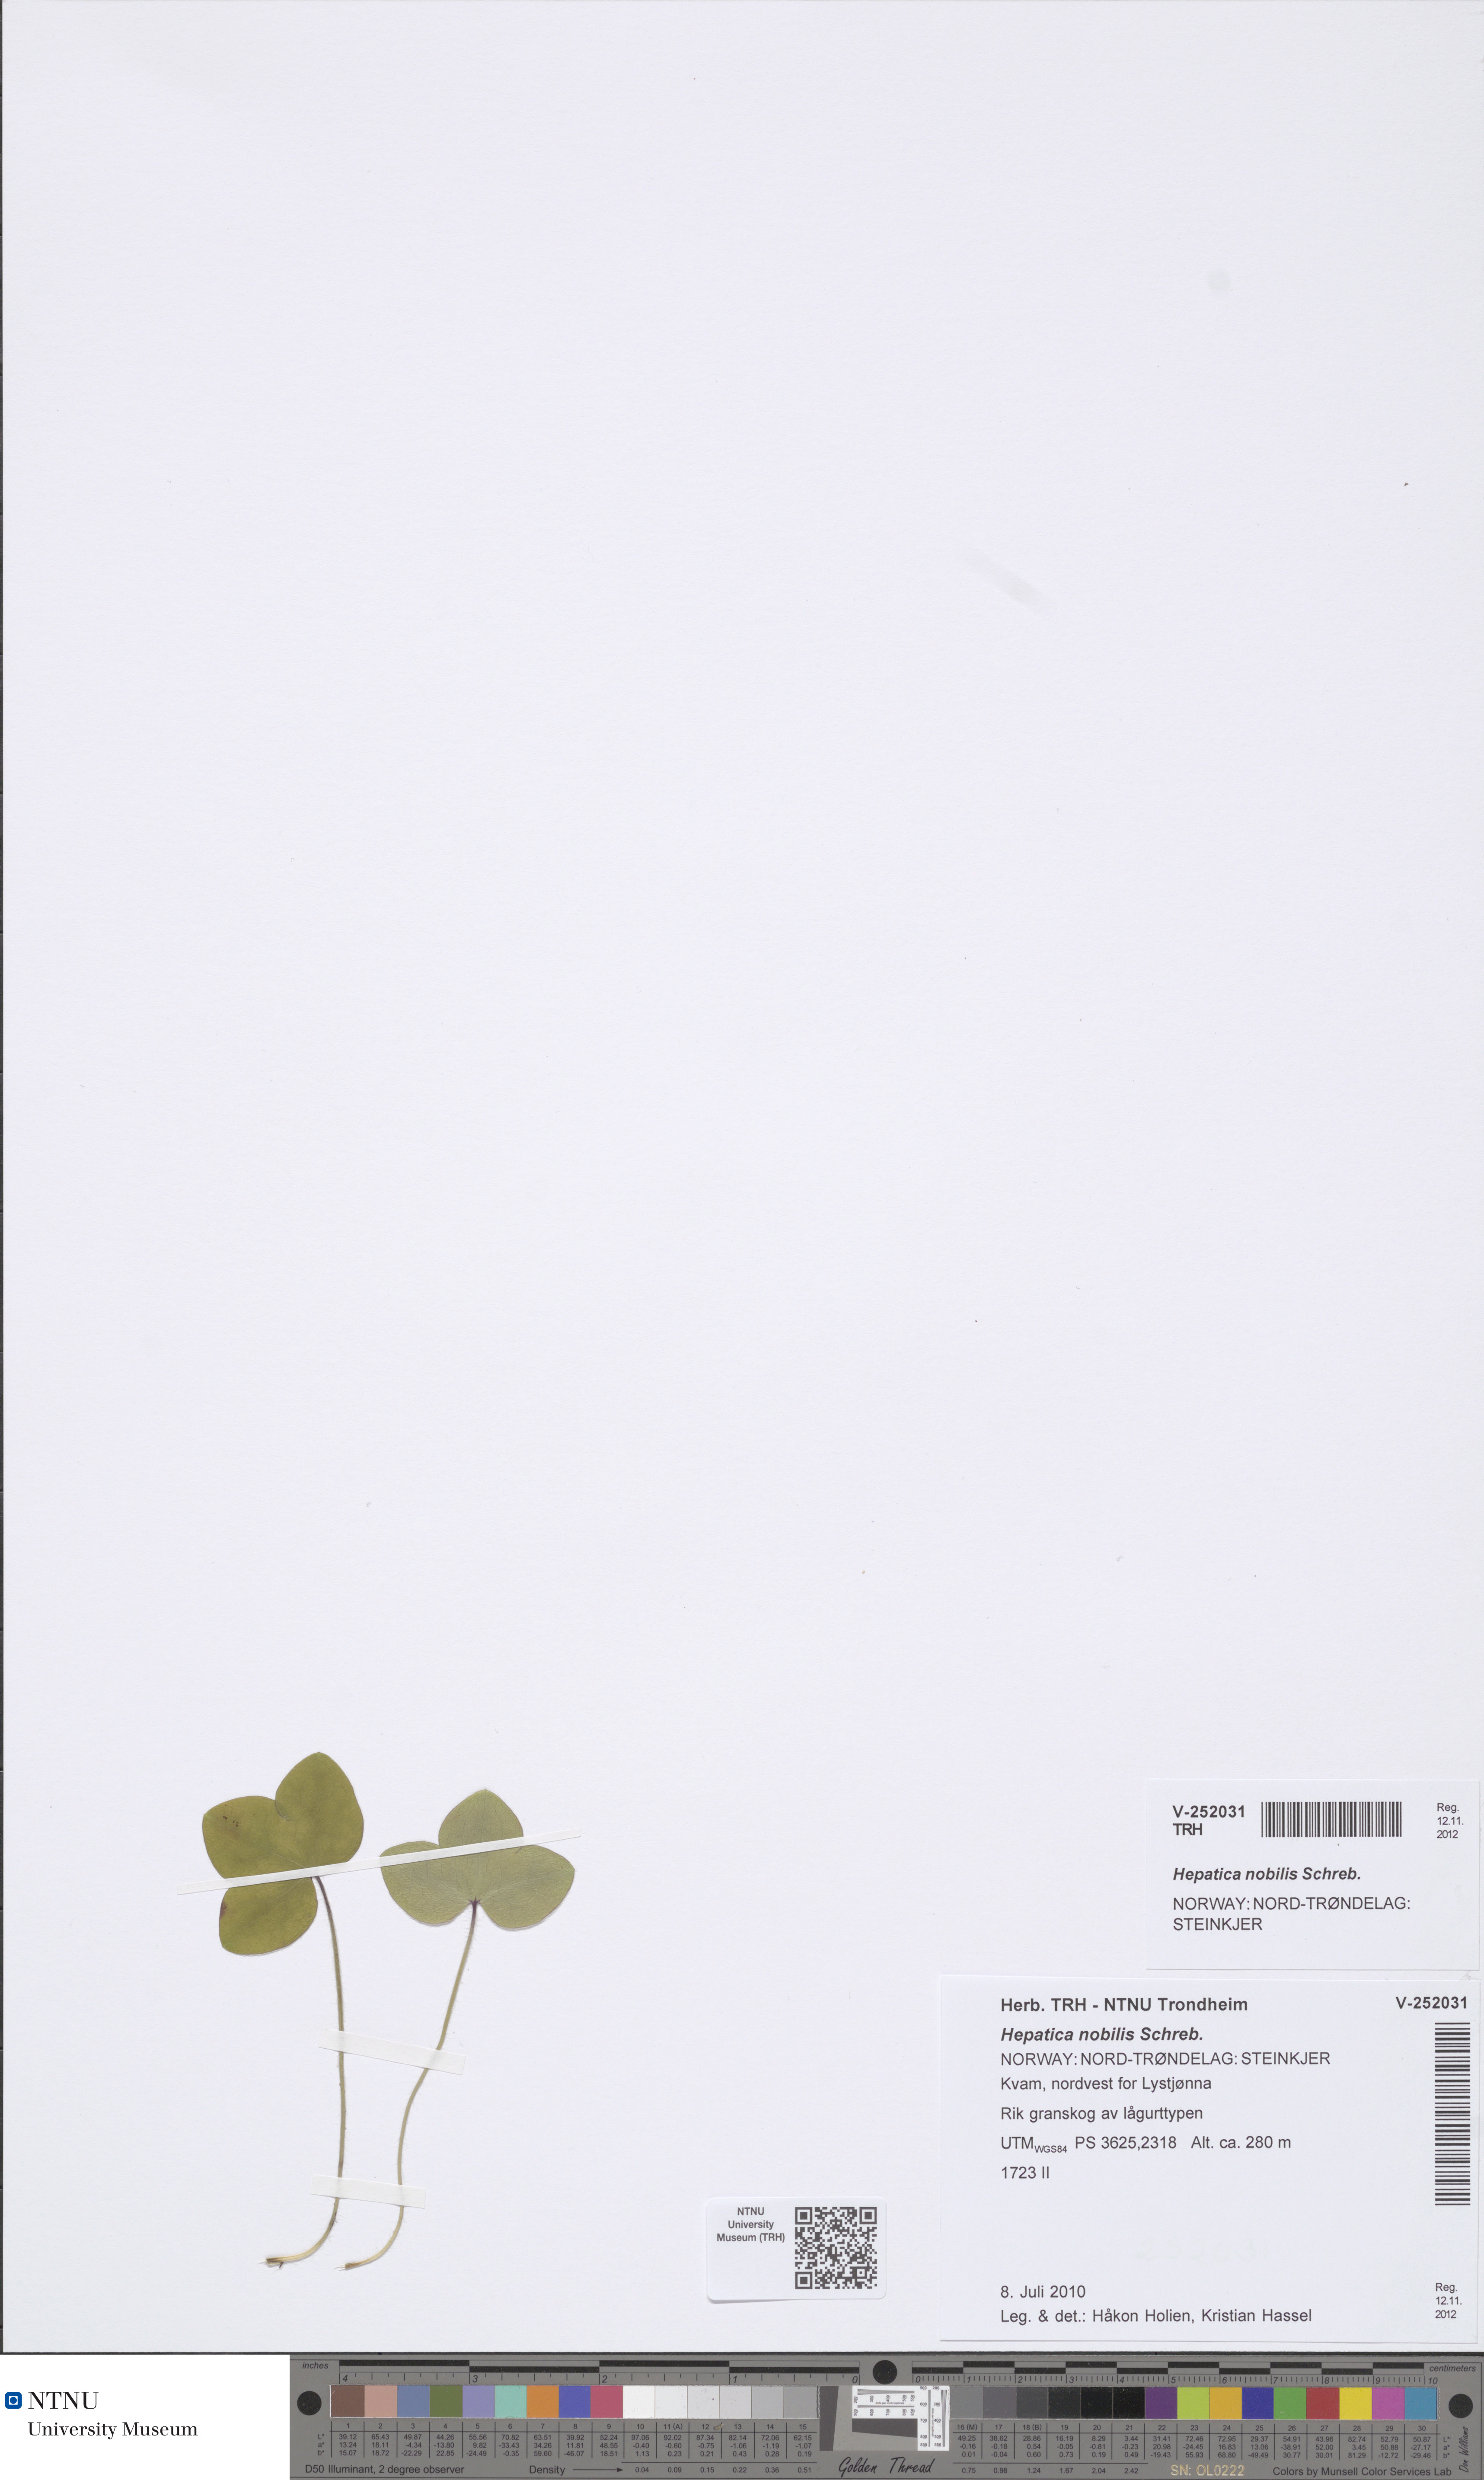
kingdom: Plantae
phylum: Tracheophyta
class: Magnoliopsida
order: Ranunculales
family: Ranunculaceae
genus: Hepatica
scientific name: Hepatica nobilis
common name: Liverleaf
